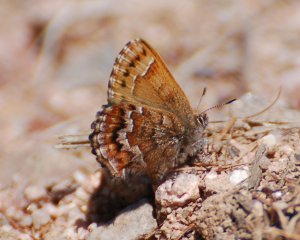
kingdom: Animalia
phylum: Arthropoda
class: Insecta
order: Lepidoptera
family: Lycaenidae
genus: Incisalia
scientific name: Incisalia niphon
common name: Eastern Pine Elfin
